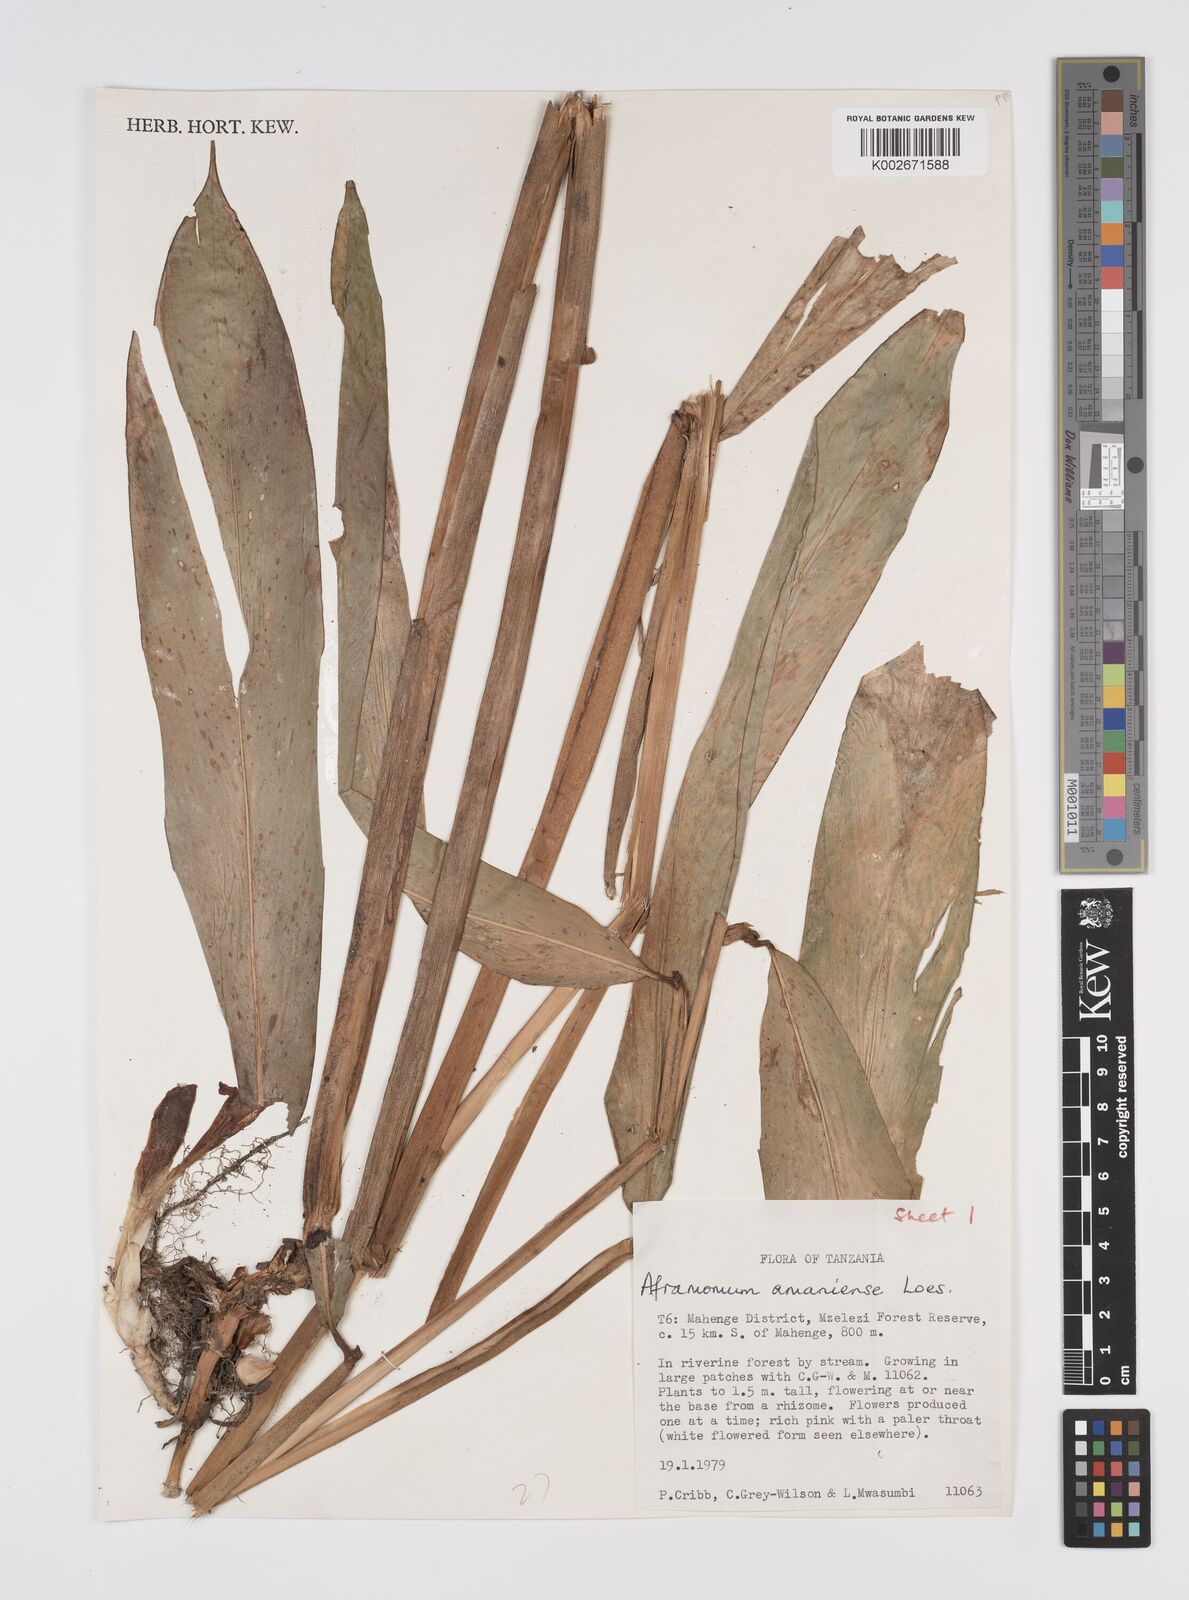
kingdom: Plantae
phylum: Tracheophyta
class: Liliopsida
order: Zingiberales
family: Zingiberaceae
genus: Aframomum
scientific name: Aframomum limbatum
